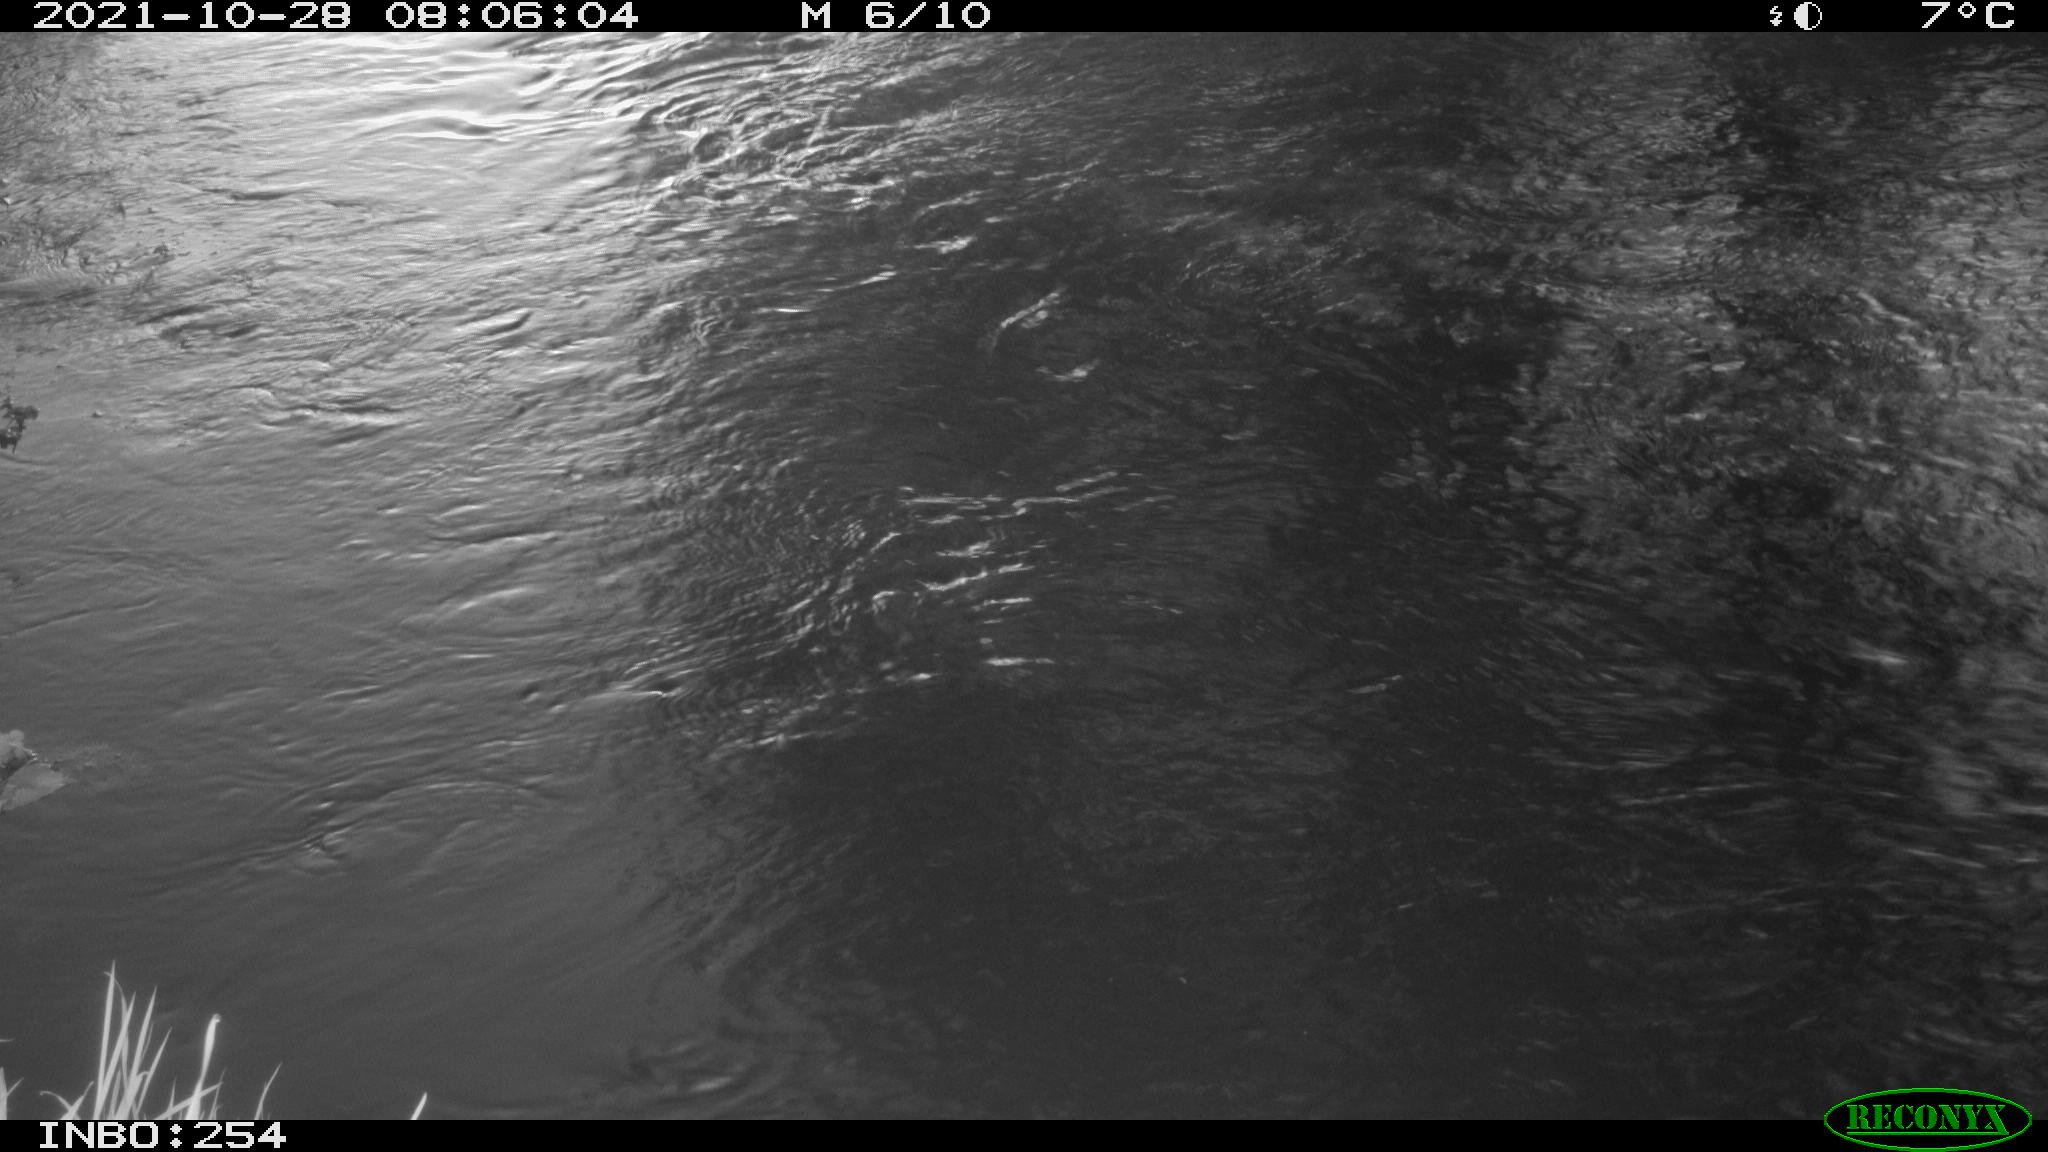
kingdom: Animalia
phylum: Chordata
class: Aves
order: Gruiformes
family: Rallidae
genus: Gallinula
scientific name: Gallinula chloropus
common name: Common moorhen
